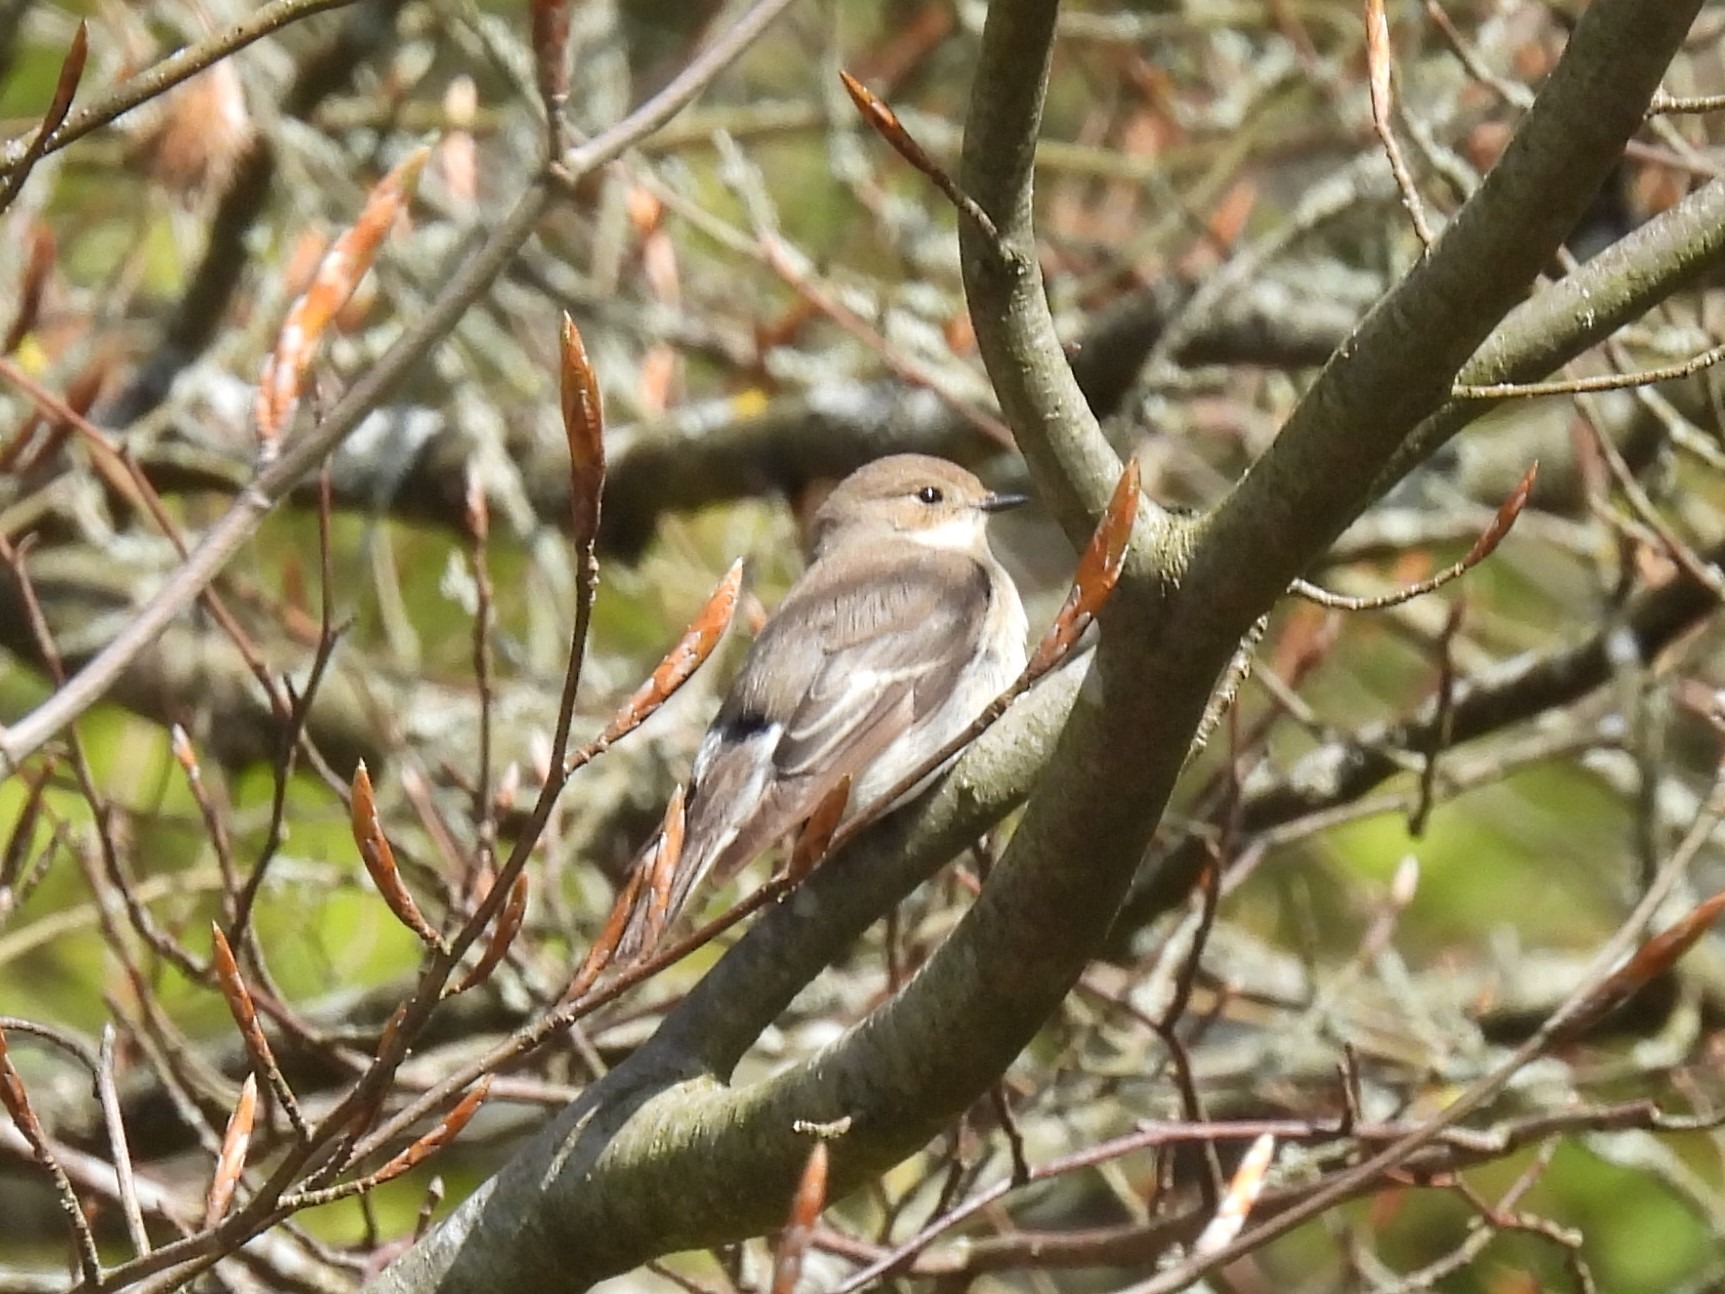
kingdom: Animalia
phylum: Chordata
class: Aves
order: Passeriformes
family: Muscicapidae
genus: Ficedula
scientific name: Ficedula hypoleuca
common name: Broget fluesnapper
